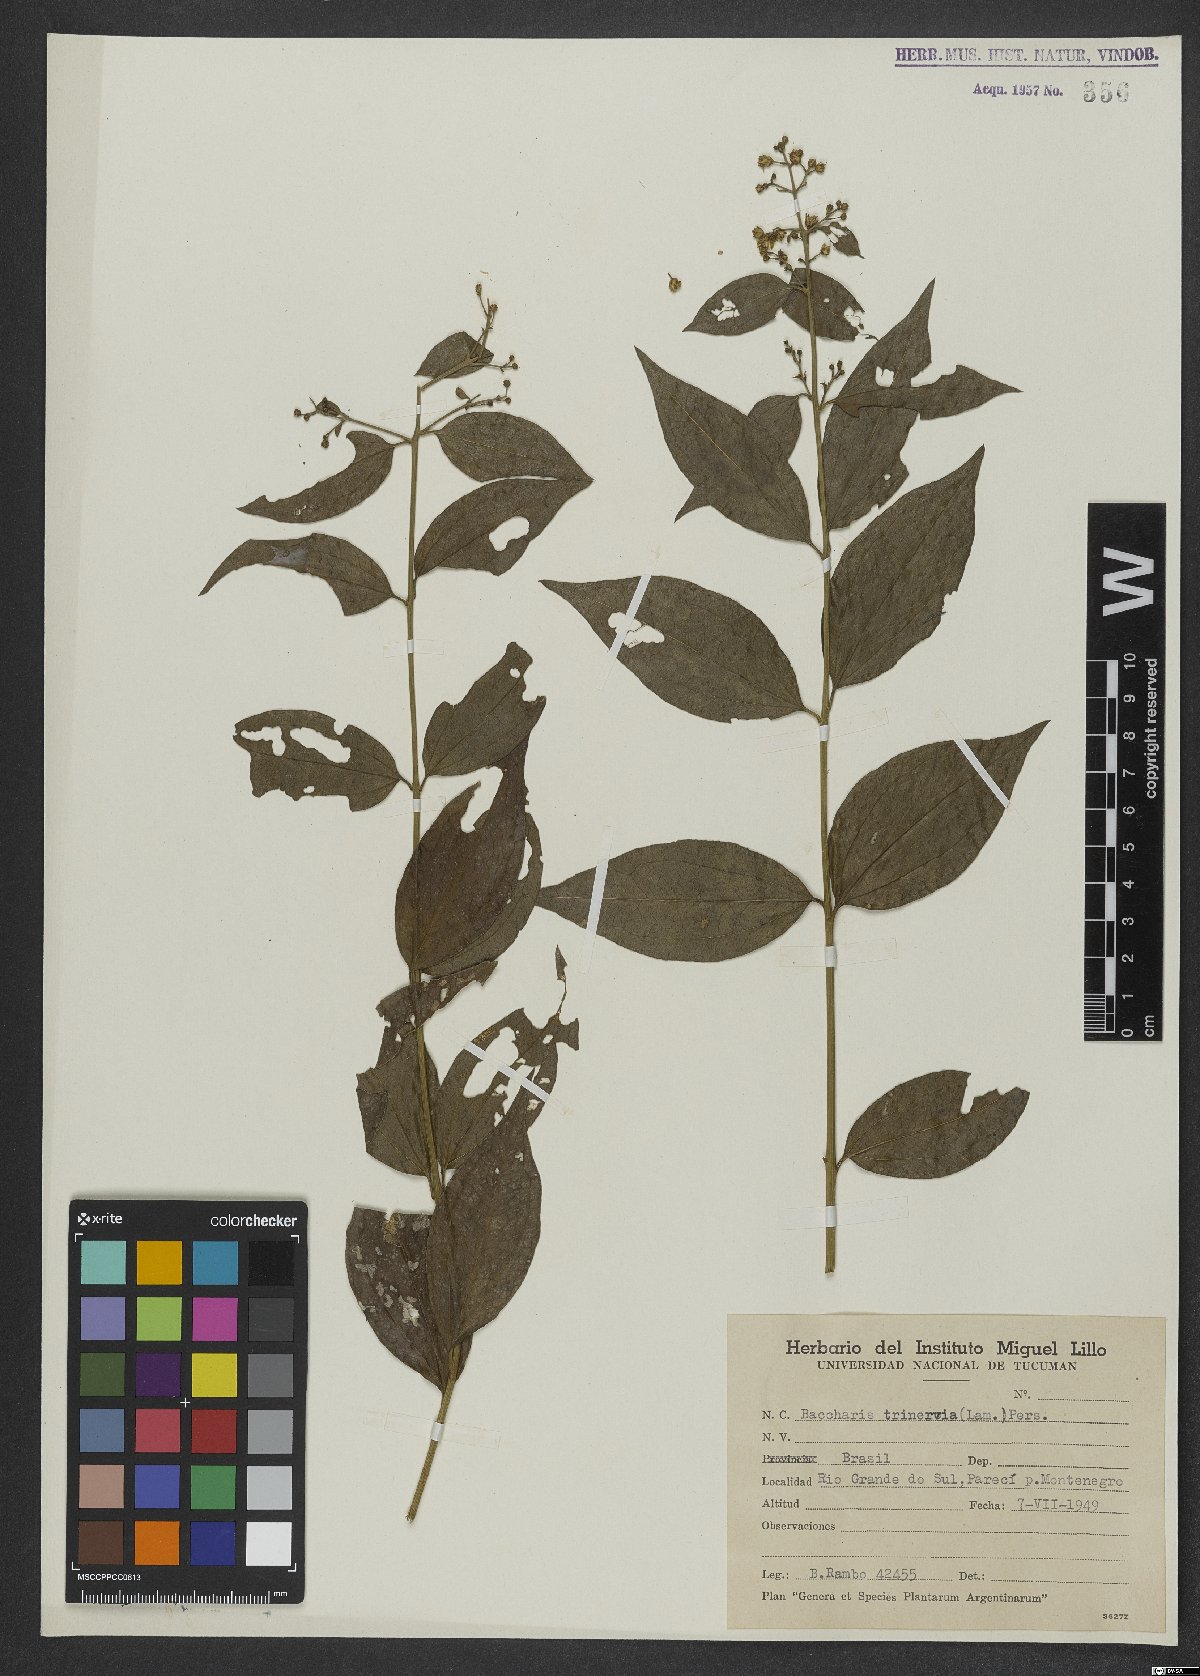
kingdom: Plantae
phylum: Tracheophyta
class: Magnoliopsida
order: Asterales
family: Asteraceae
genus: Baccharis
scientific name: Baccharis trinervis
